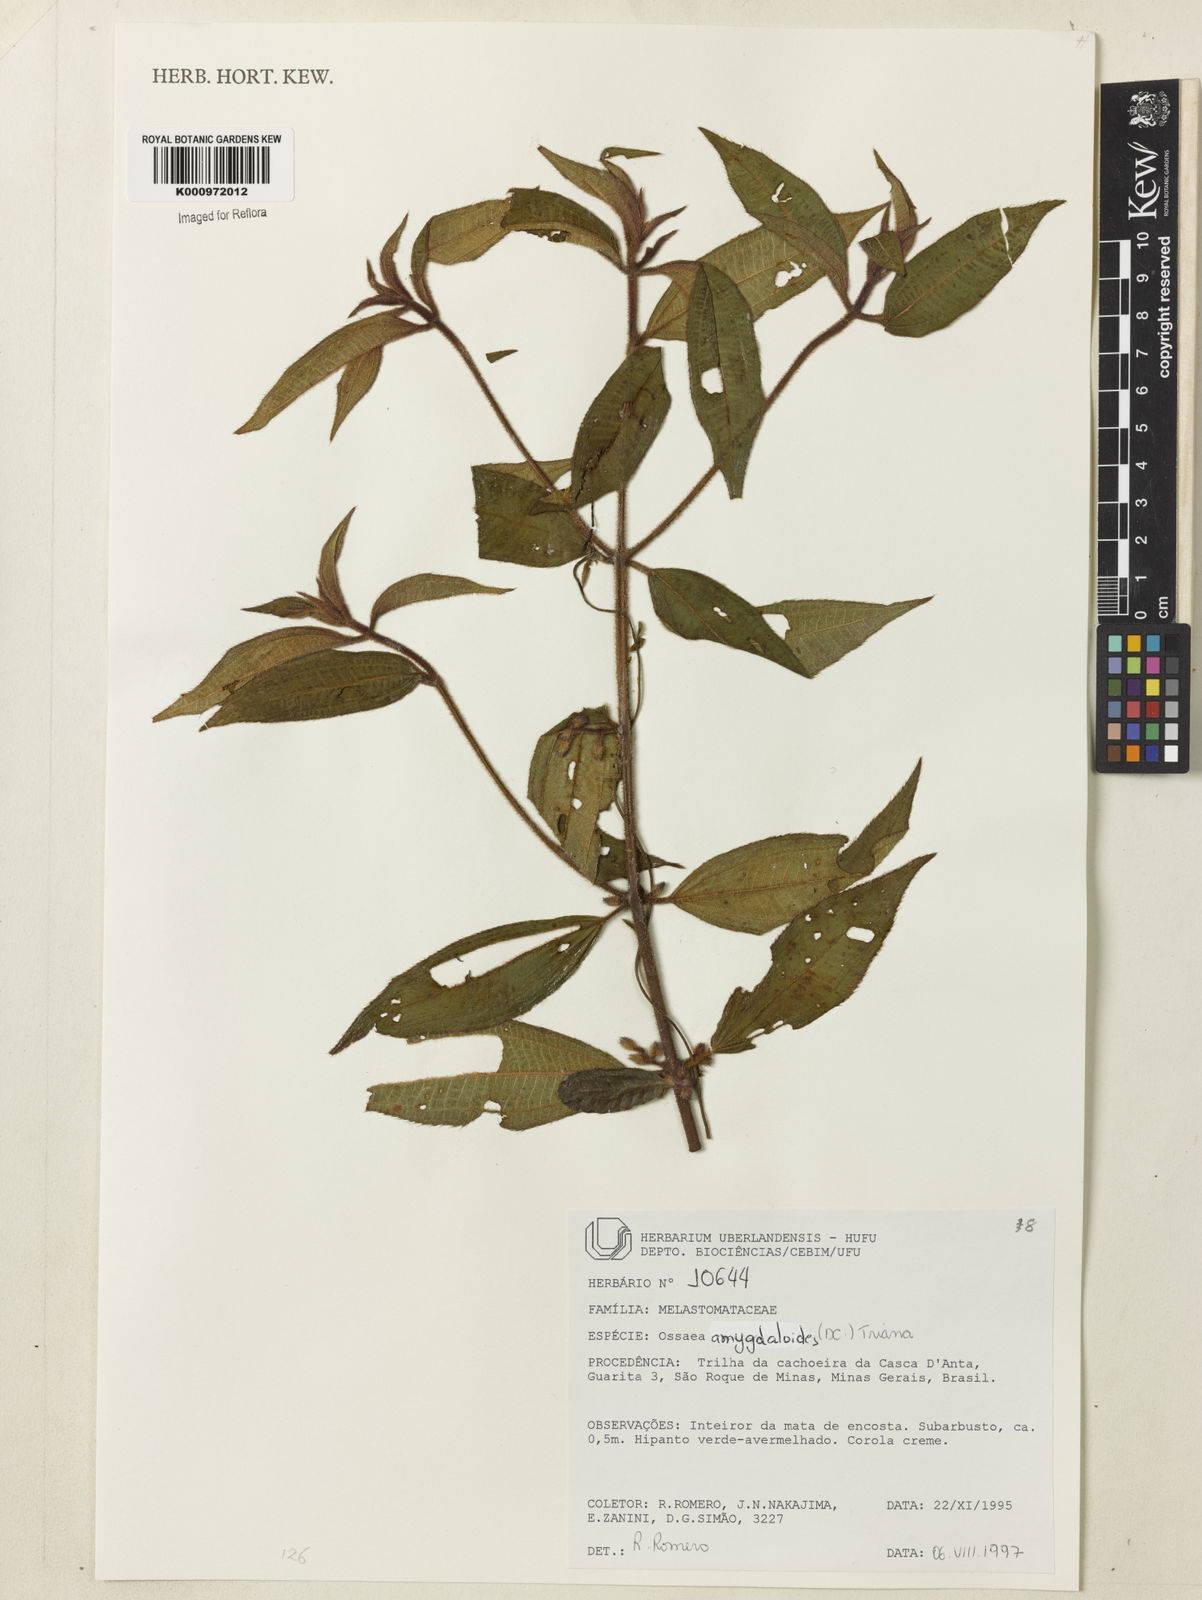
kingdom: Plantae
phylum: Tracheophyta
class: Magnoliopsida
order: Myrtales
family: Melastomataceae
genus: Miconia
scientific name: Miconia amygdaloides
